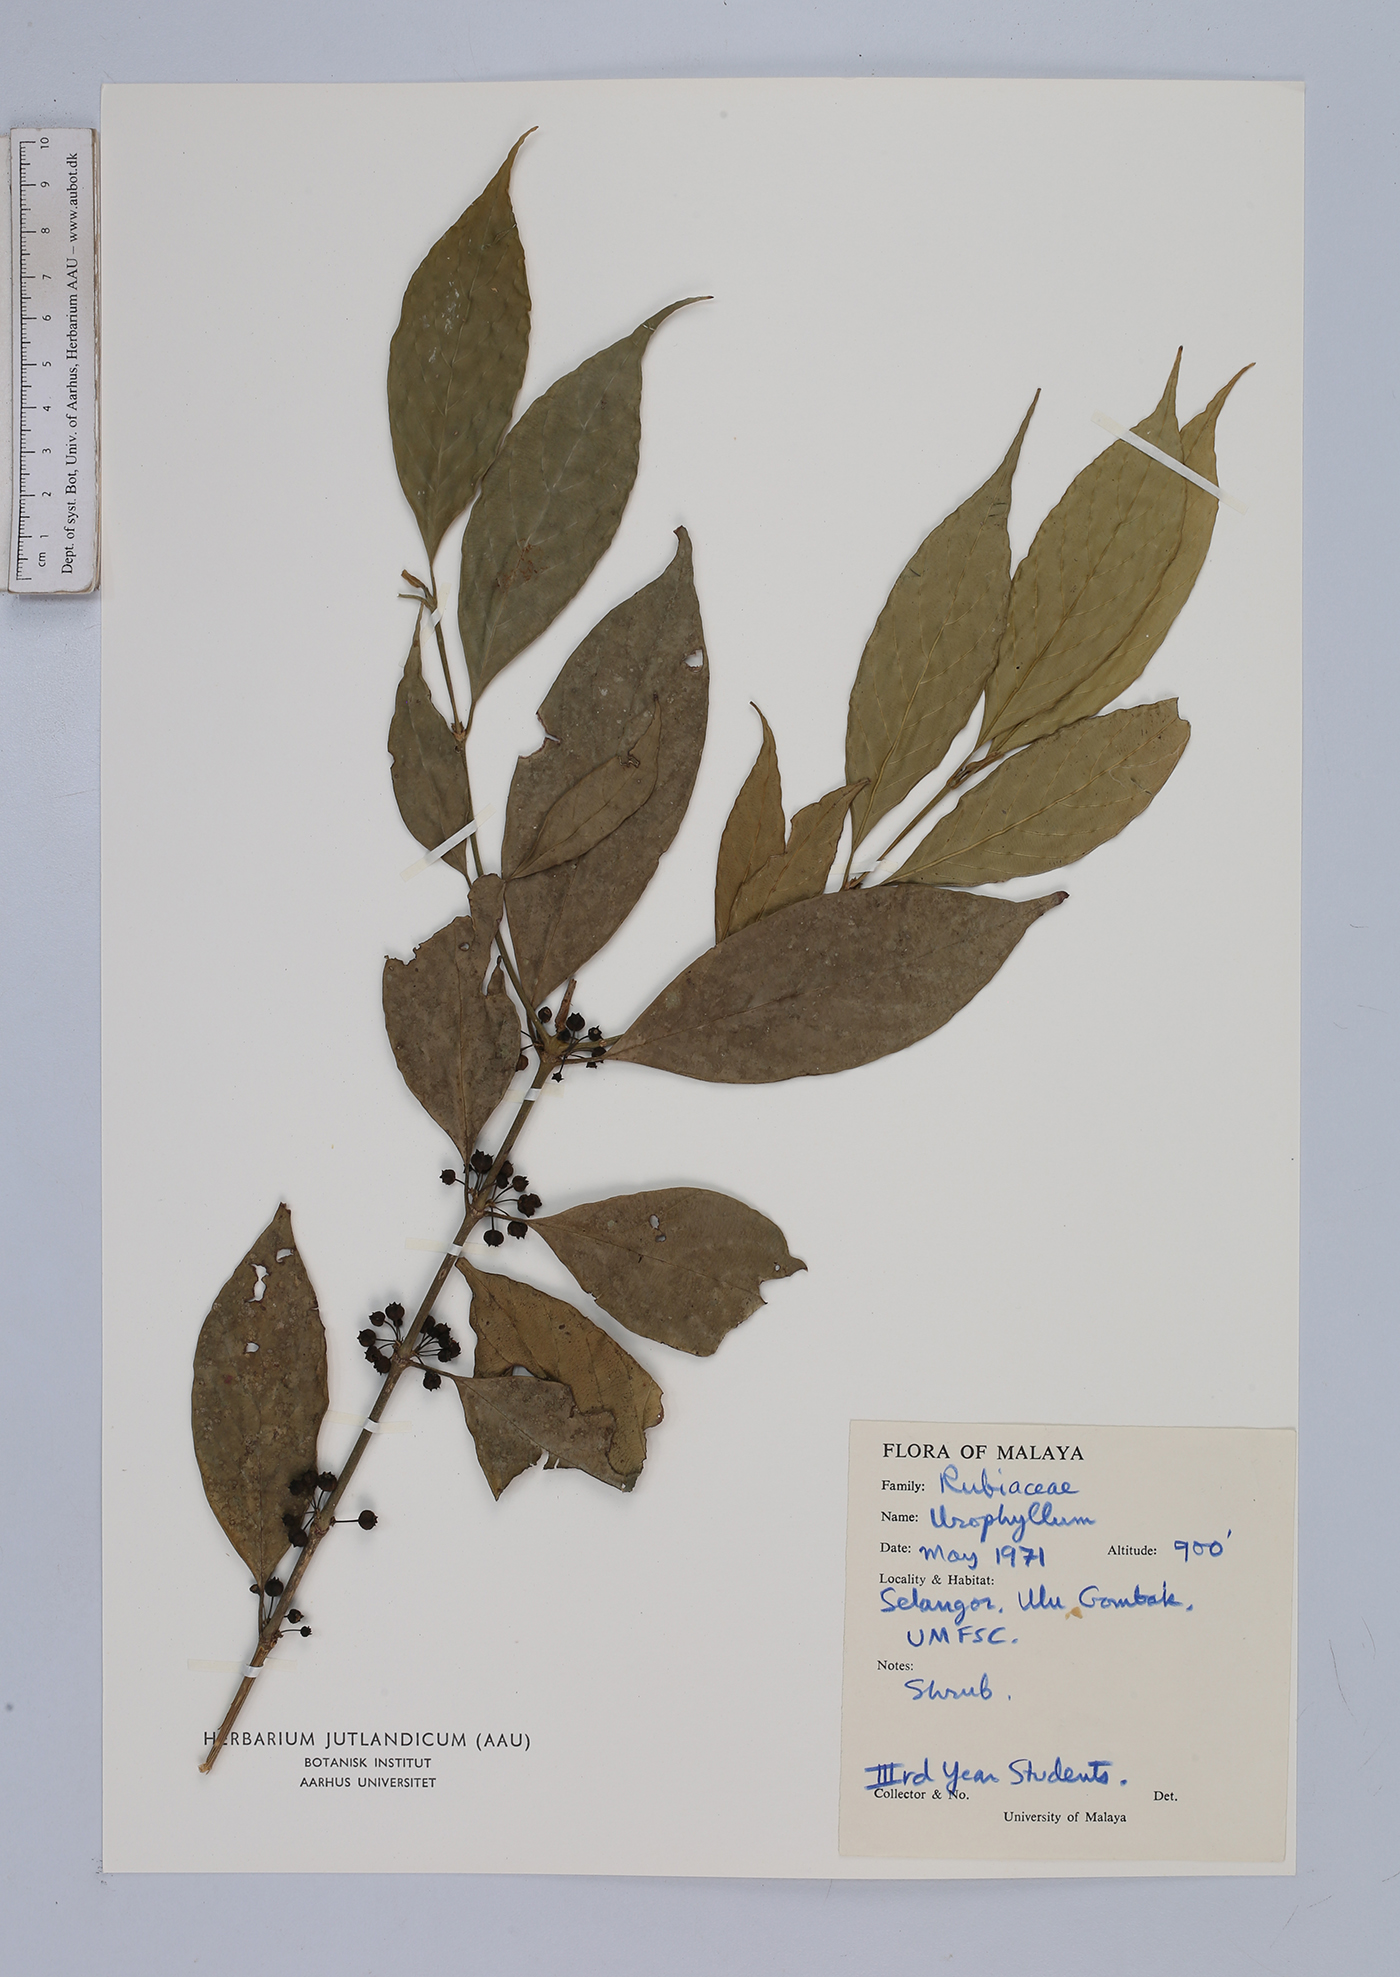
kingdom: Plantae
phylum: Tracheophyta
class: Magnoliopsida
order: Gentianales
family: Rubiaceae
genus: Urophyllum
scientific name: Urophyllum
